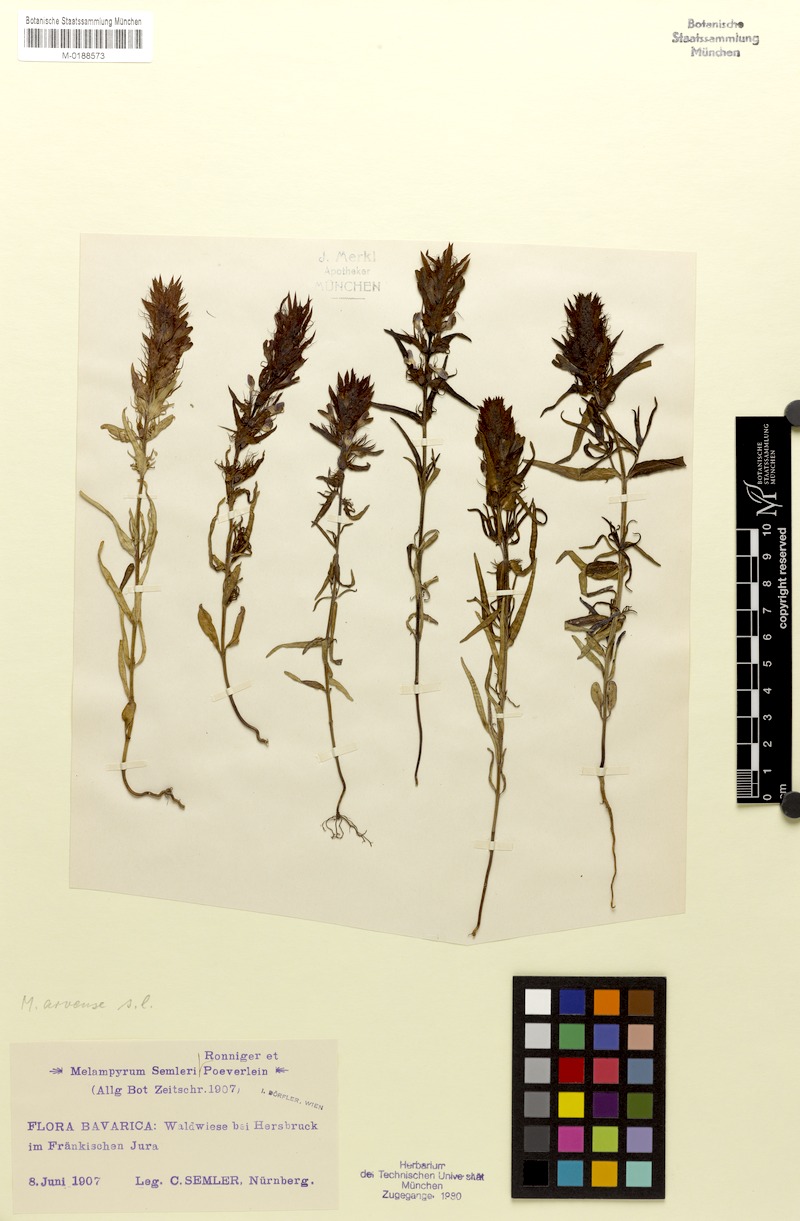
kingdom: Plantae
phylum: Tracheophyta
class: Magnoliopsida
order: Lamiales
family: Orobanchaceae
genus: Melampyrum
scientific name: Melampyrum arvense
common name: Field cow-wheat
